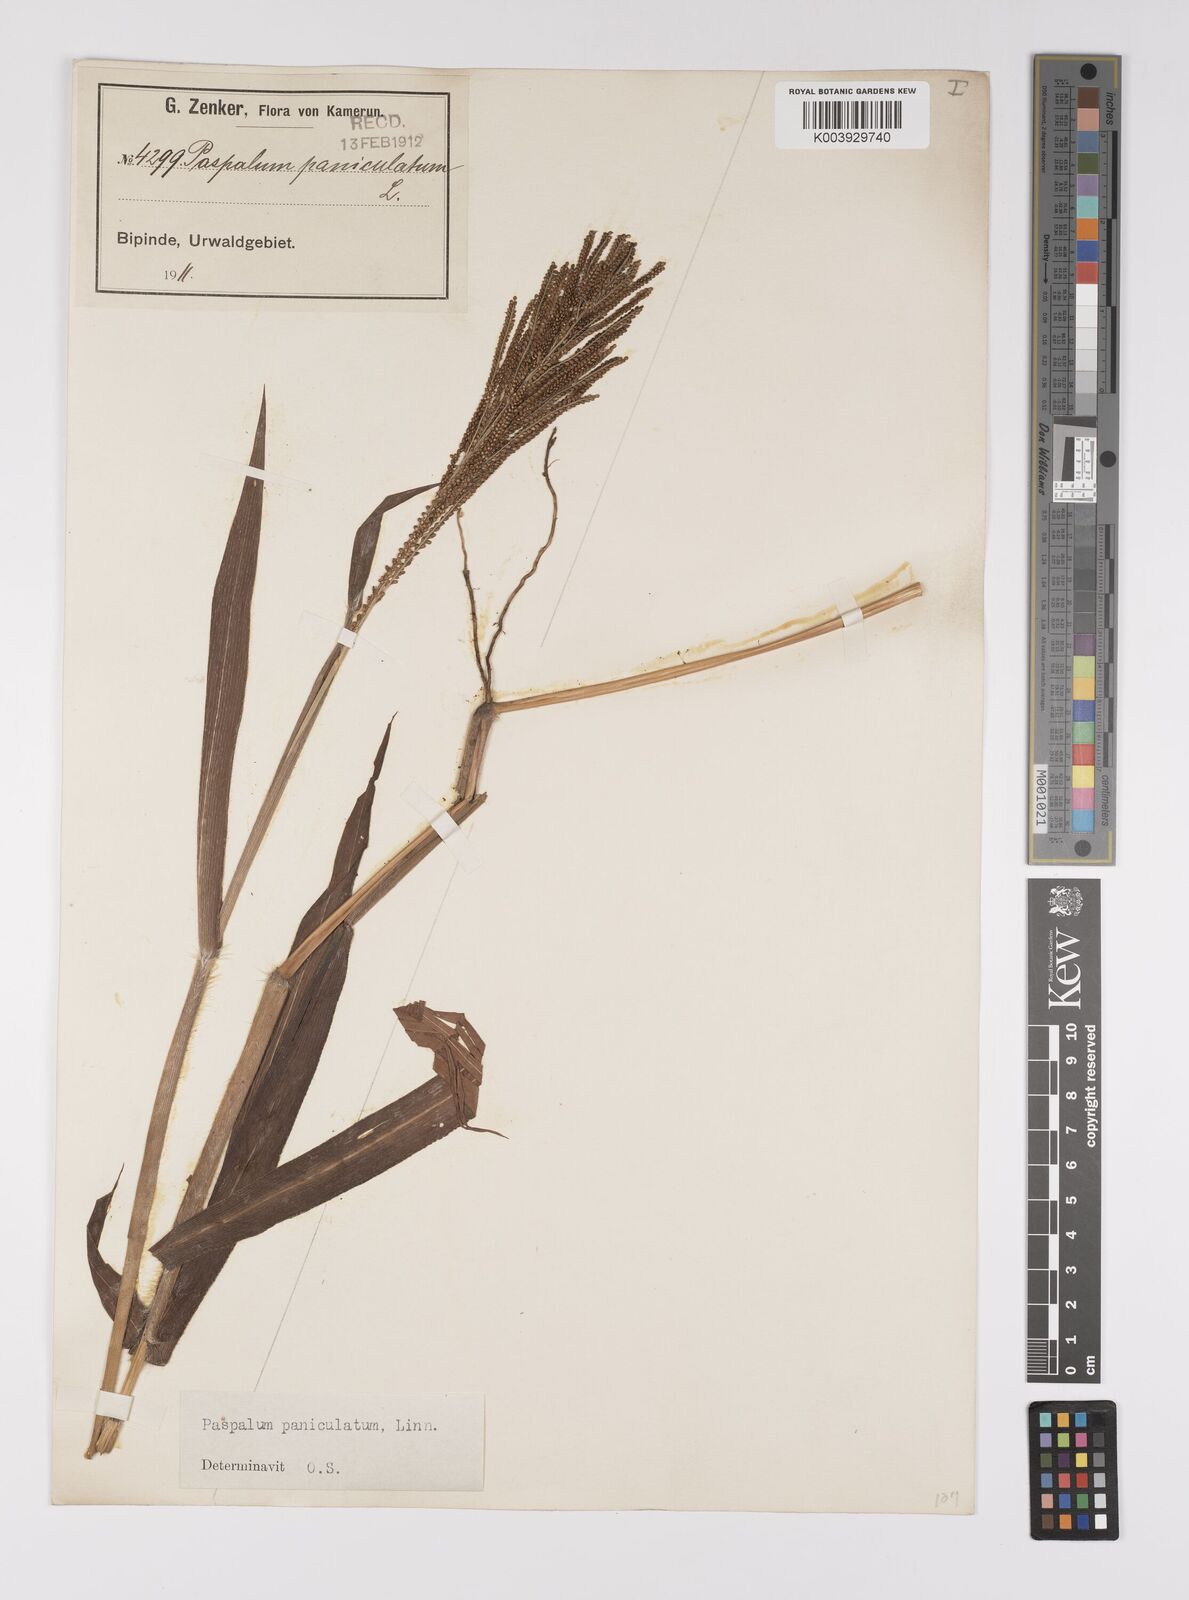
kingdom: Plantae
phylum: Tracheophyta
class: Liliopsida
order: Poales
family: Poaceae
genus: Paspalum
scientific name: Paspalum paniculatum
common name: Arrocillo
